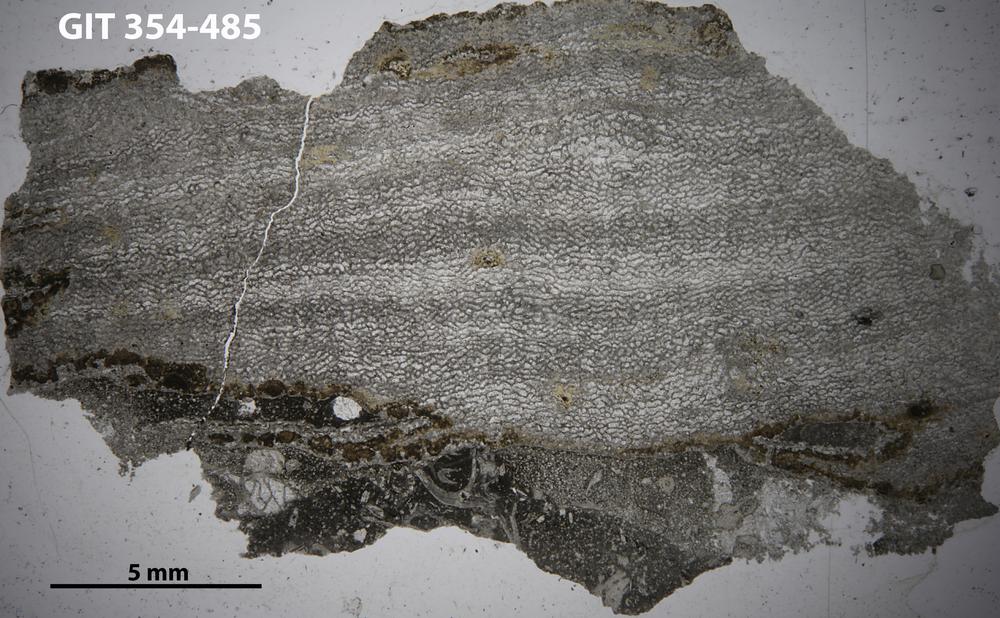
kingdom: Animalia
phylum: Porifera
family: Ecclimadictyidae
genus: Ecclimadictyon
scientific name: Ecclimadictyon Clathrodictyon microvesiculosum
